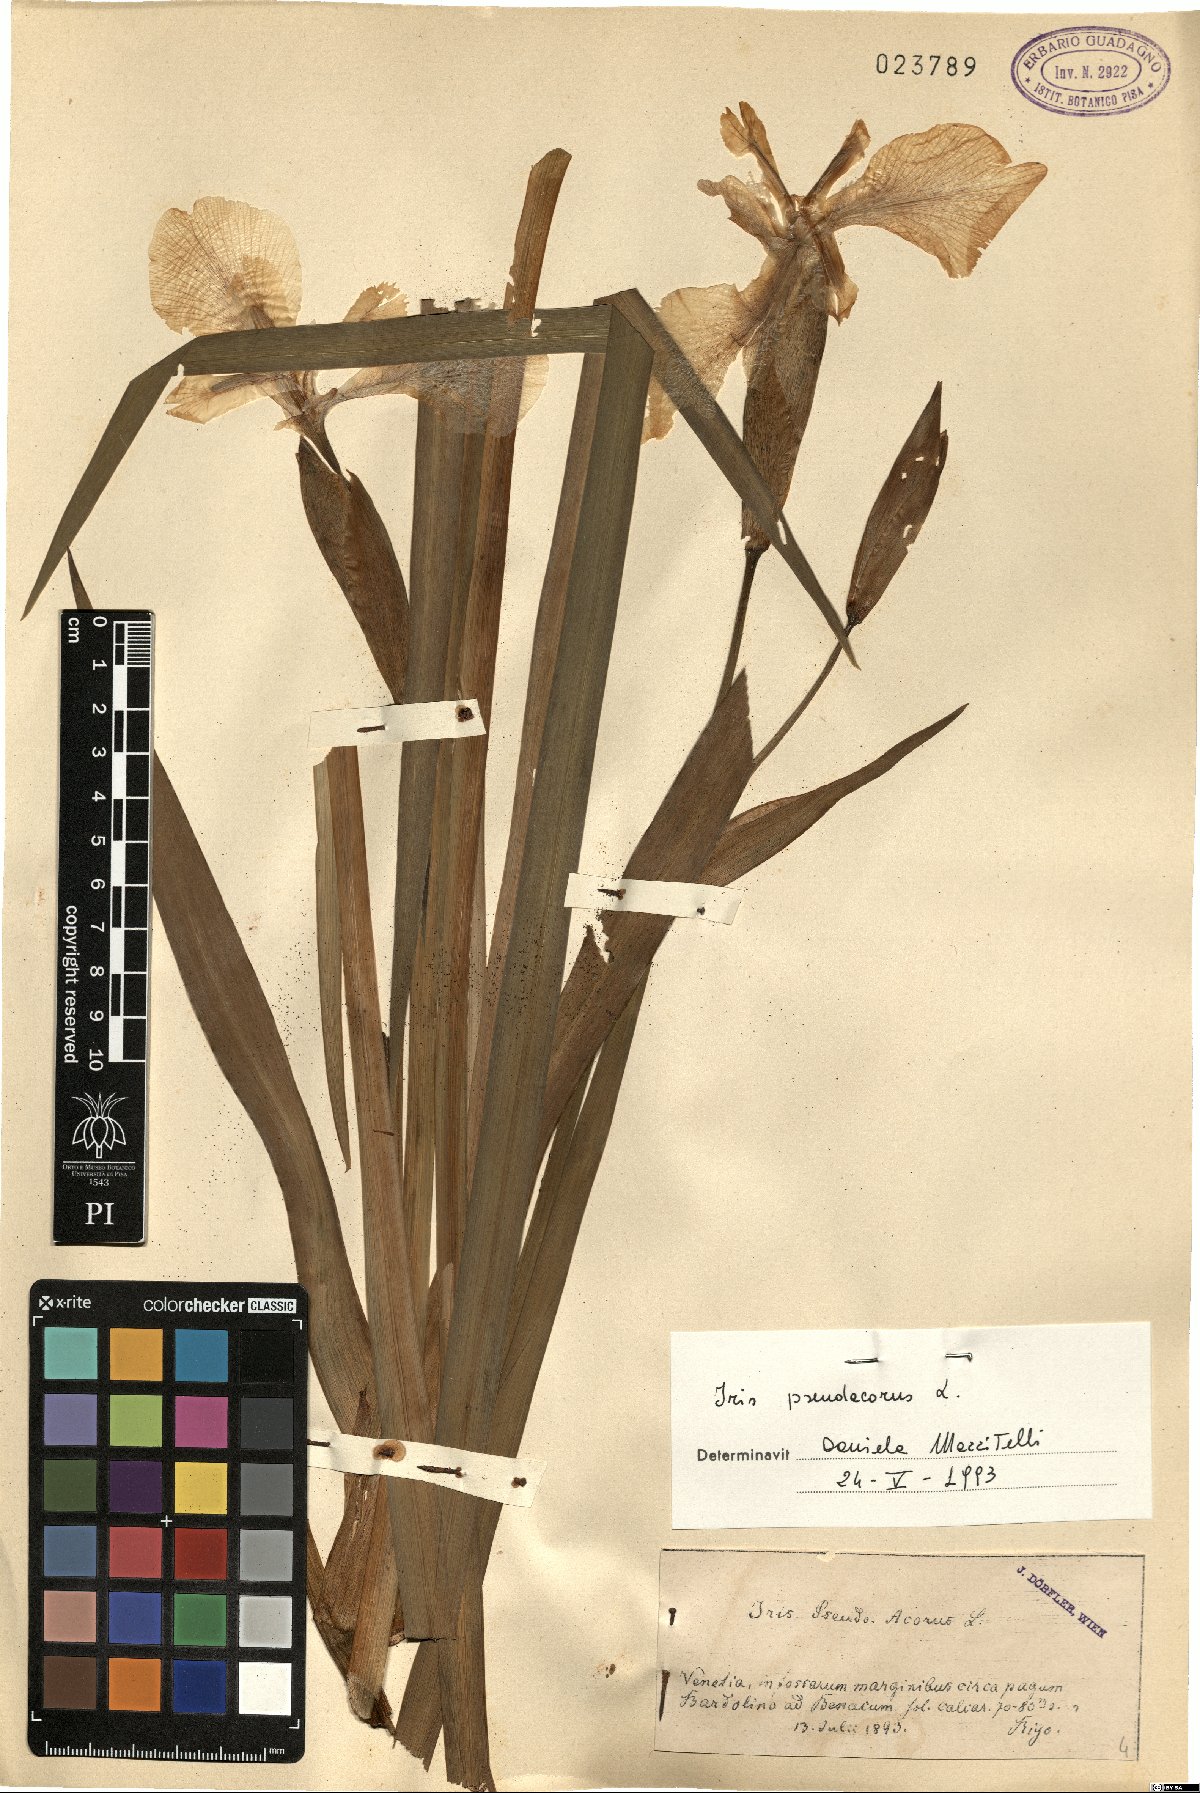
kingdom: Plantae
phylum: Tracheophyta
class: Liliopsida
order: Asparagales
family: Iridaceae
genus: Iris
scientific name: Iris pseudacorus
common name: Yellow flag
